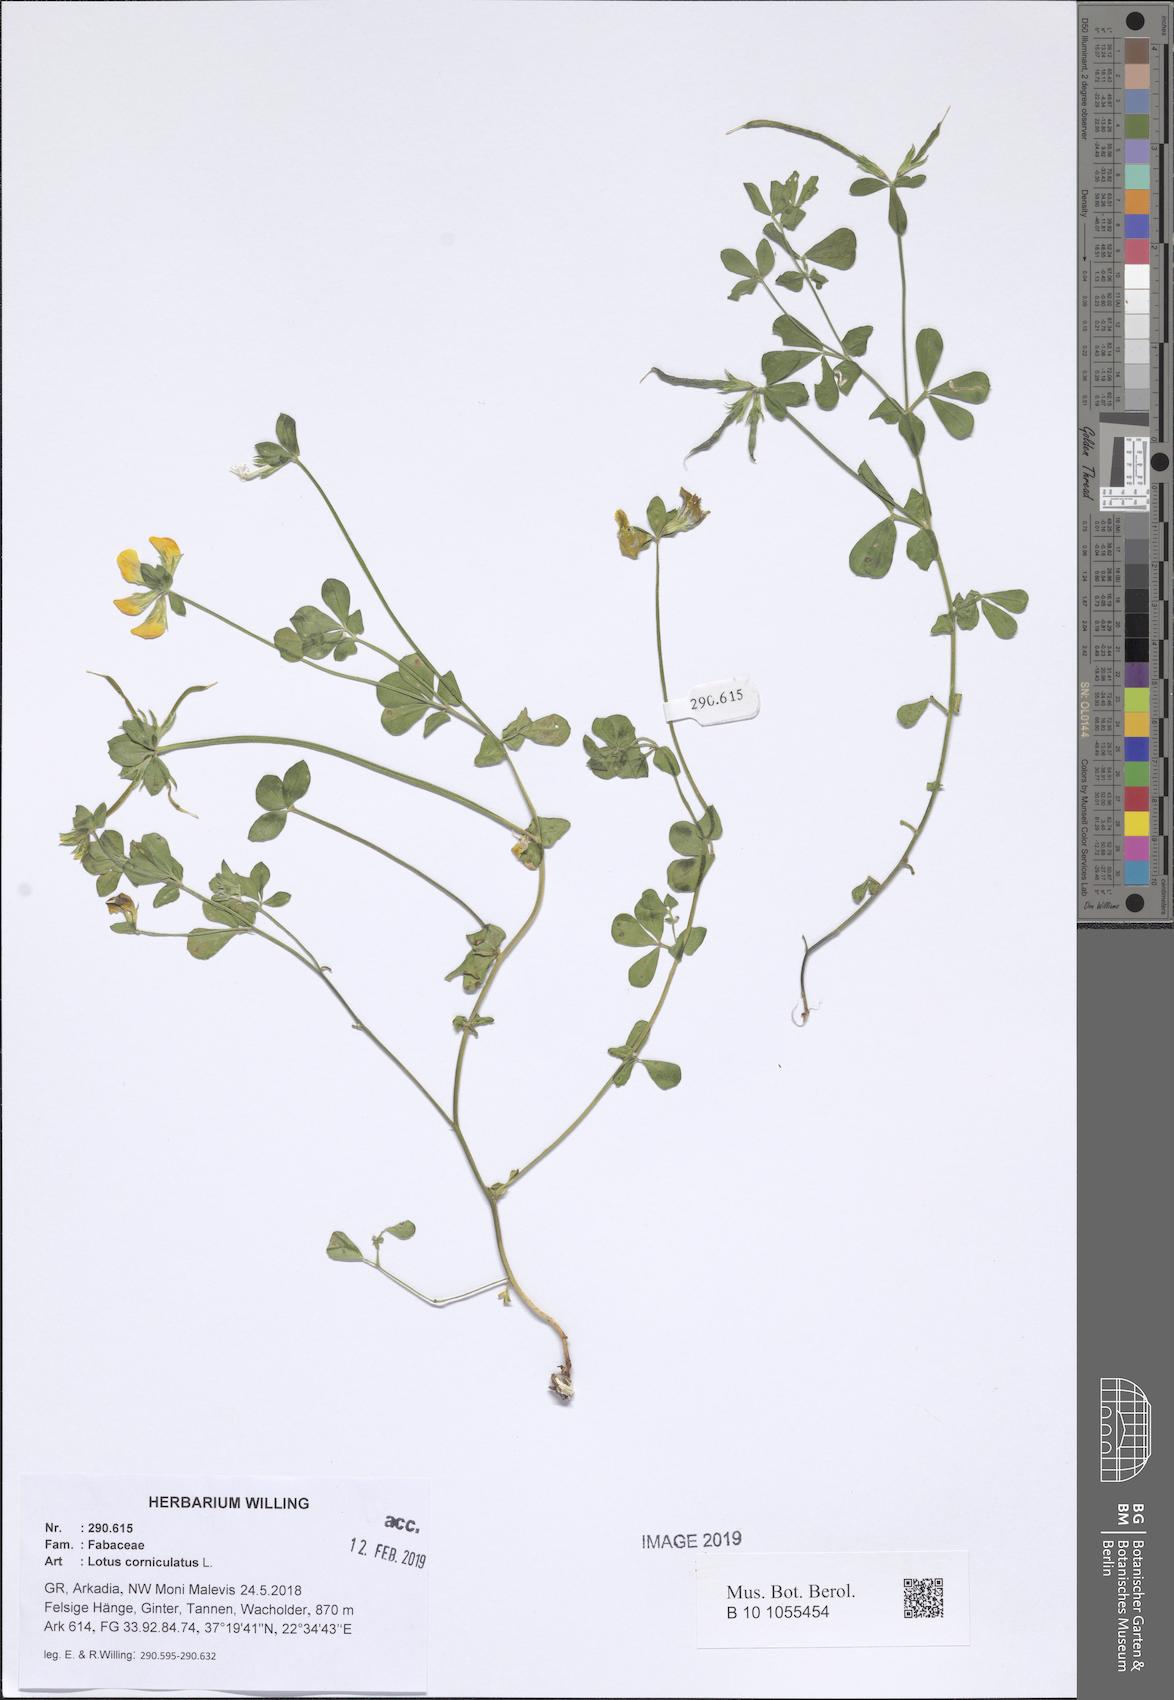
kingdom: Plantae
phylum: Tracheophyta
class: Magnoliopsida
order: Fabales
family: Fabaceae
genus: Lotus
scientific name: Lotus corniculatus
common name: Common bird's-foot-trefoil
